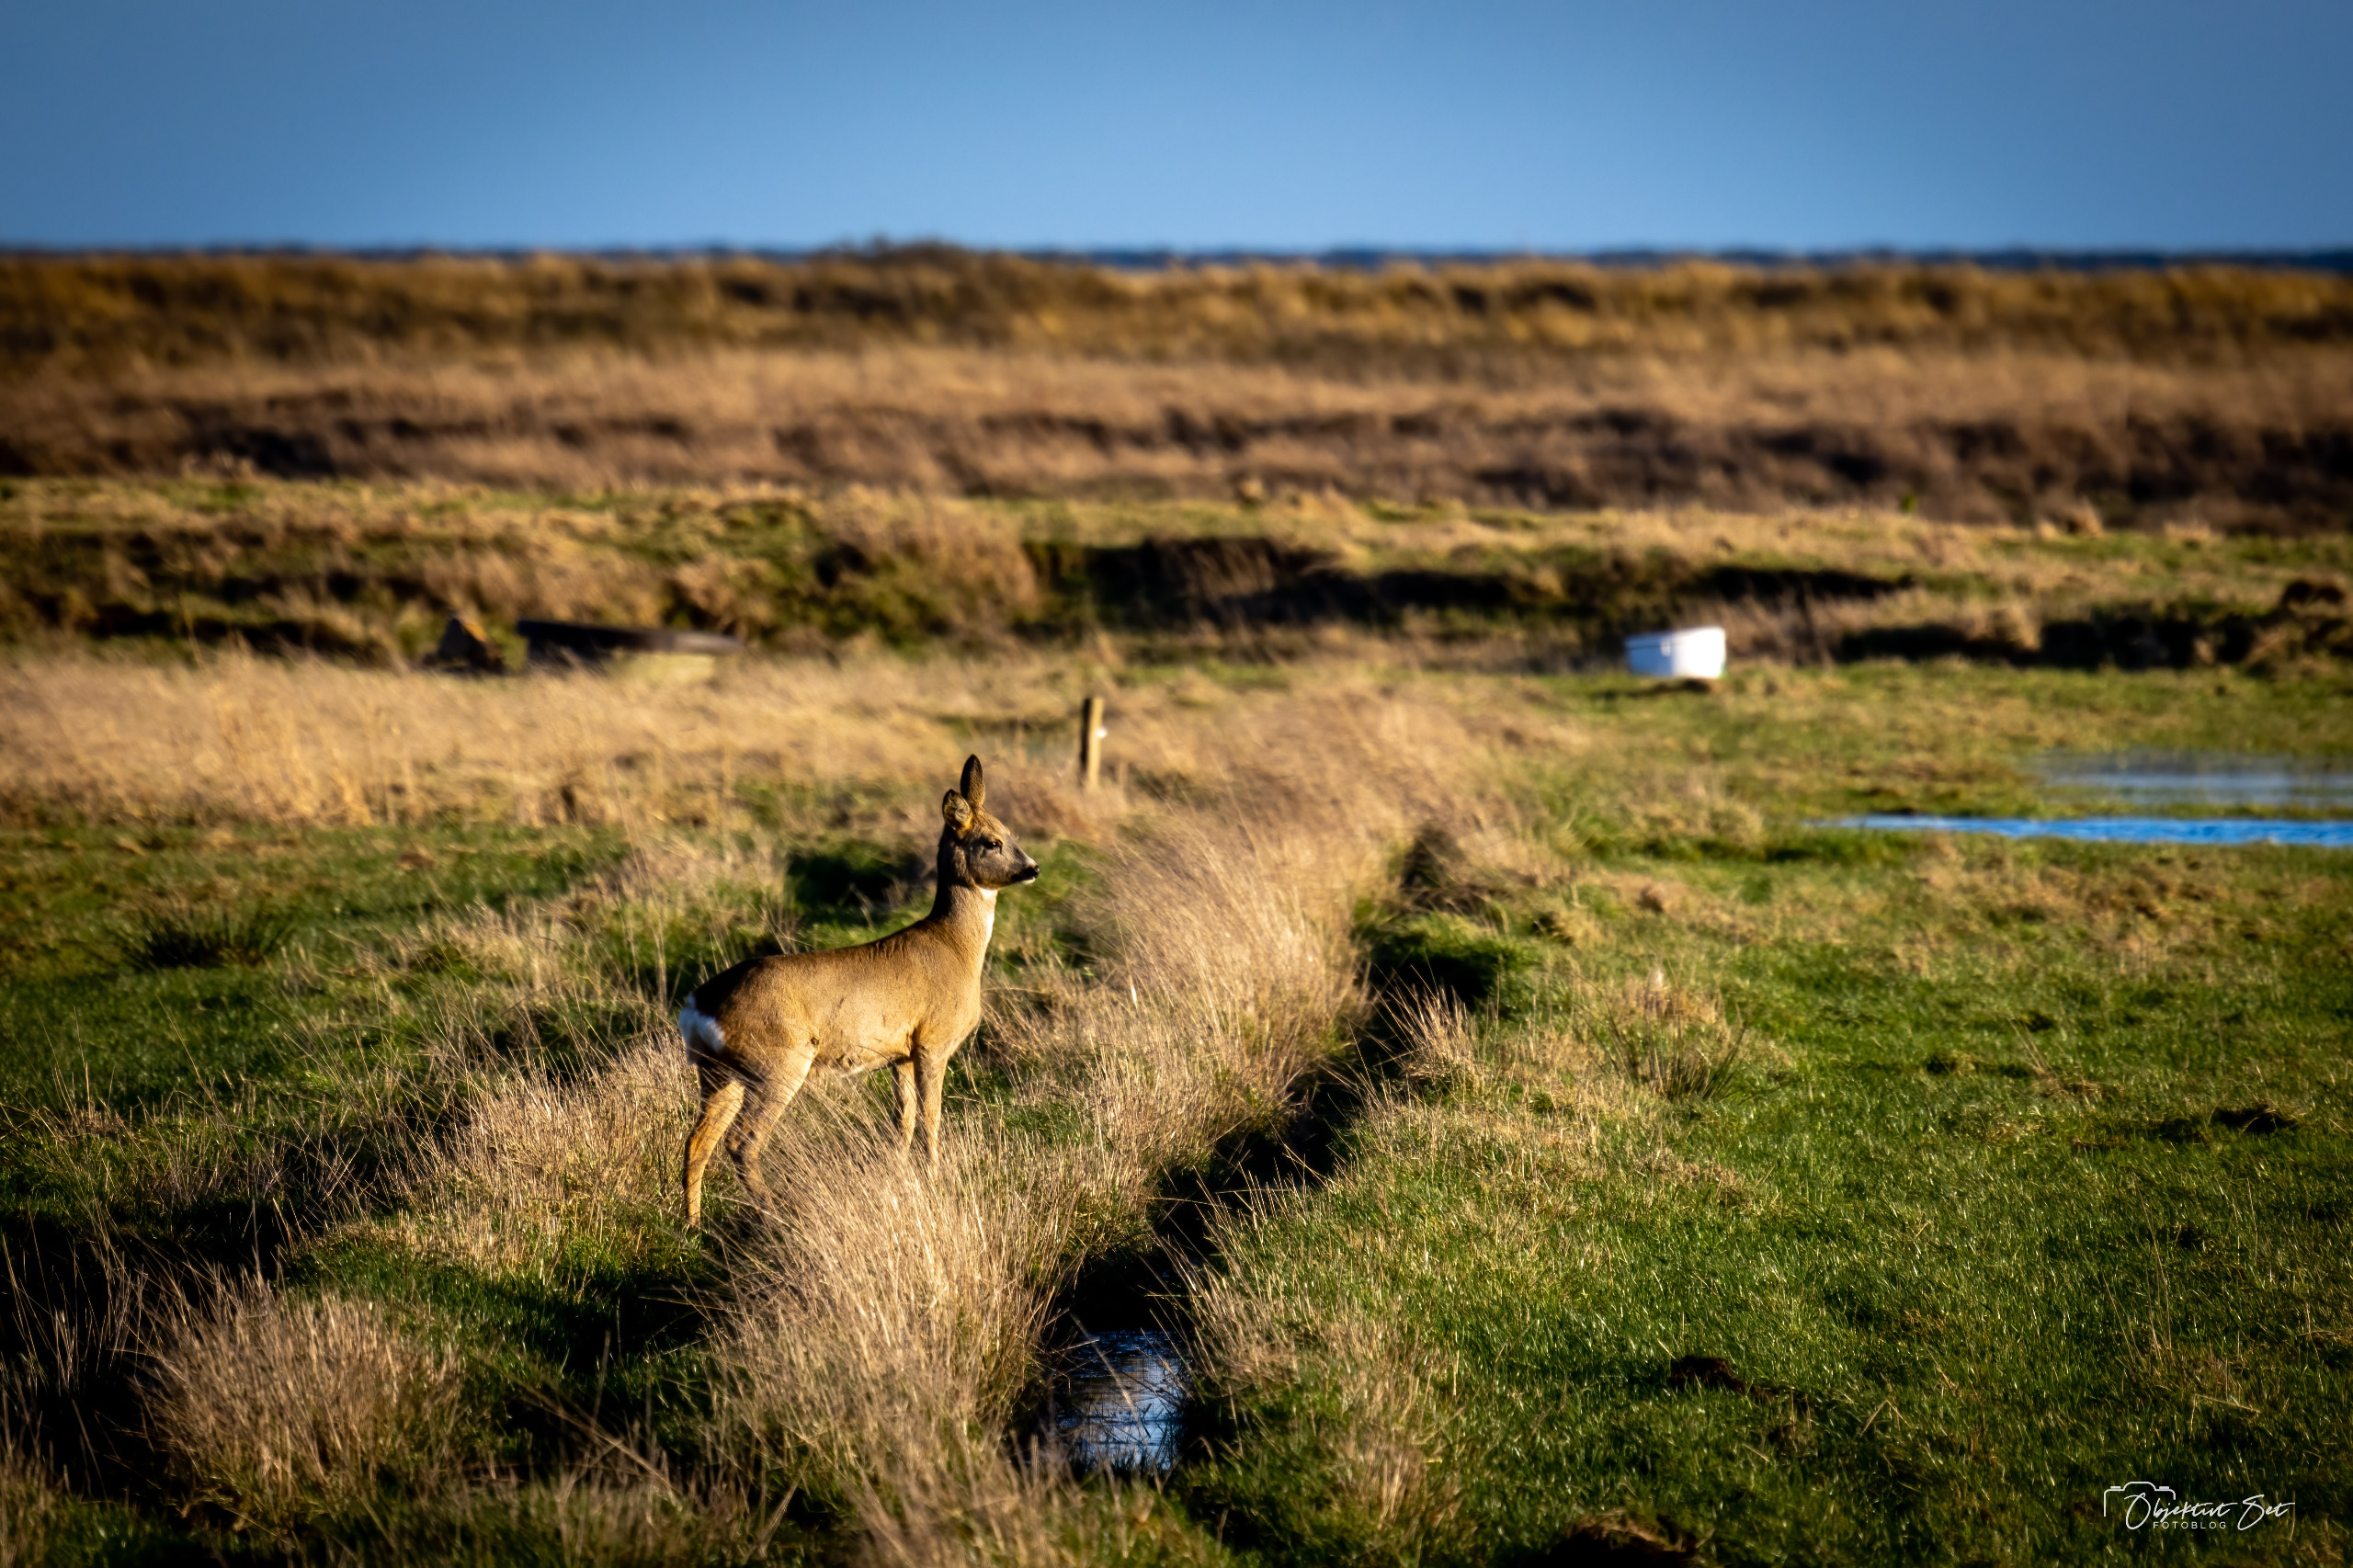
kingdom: Animalia
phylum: Chordata
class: Mammalia
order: Artiodactyla
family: Cervidae
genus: Capreolus
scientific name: Capreolus capreolus
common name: Rådyr
